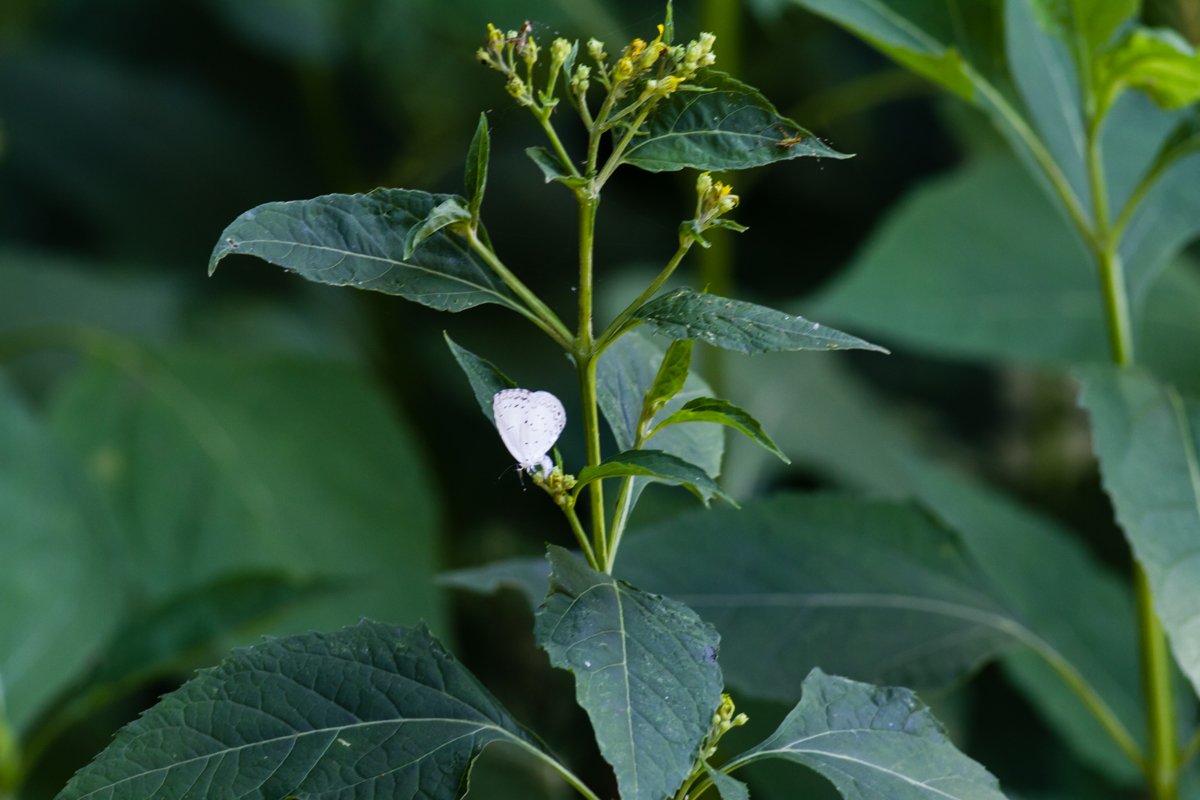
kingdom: Animalia
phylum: Arthropoda
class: Insecta
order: Lepidoptera
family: Lycaenidae
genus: Celastrina
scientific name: Celastrina
